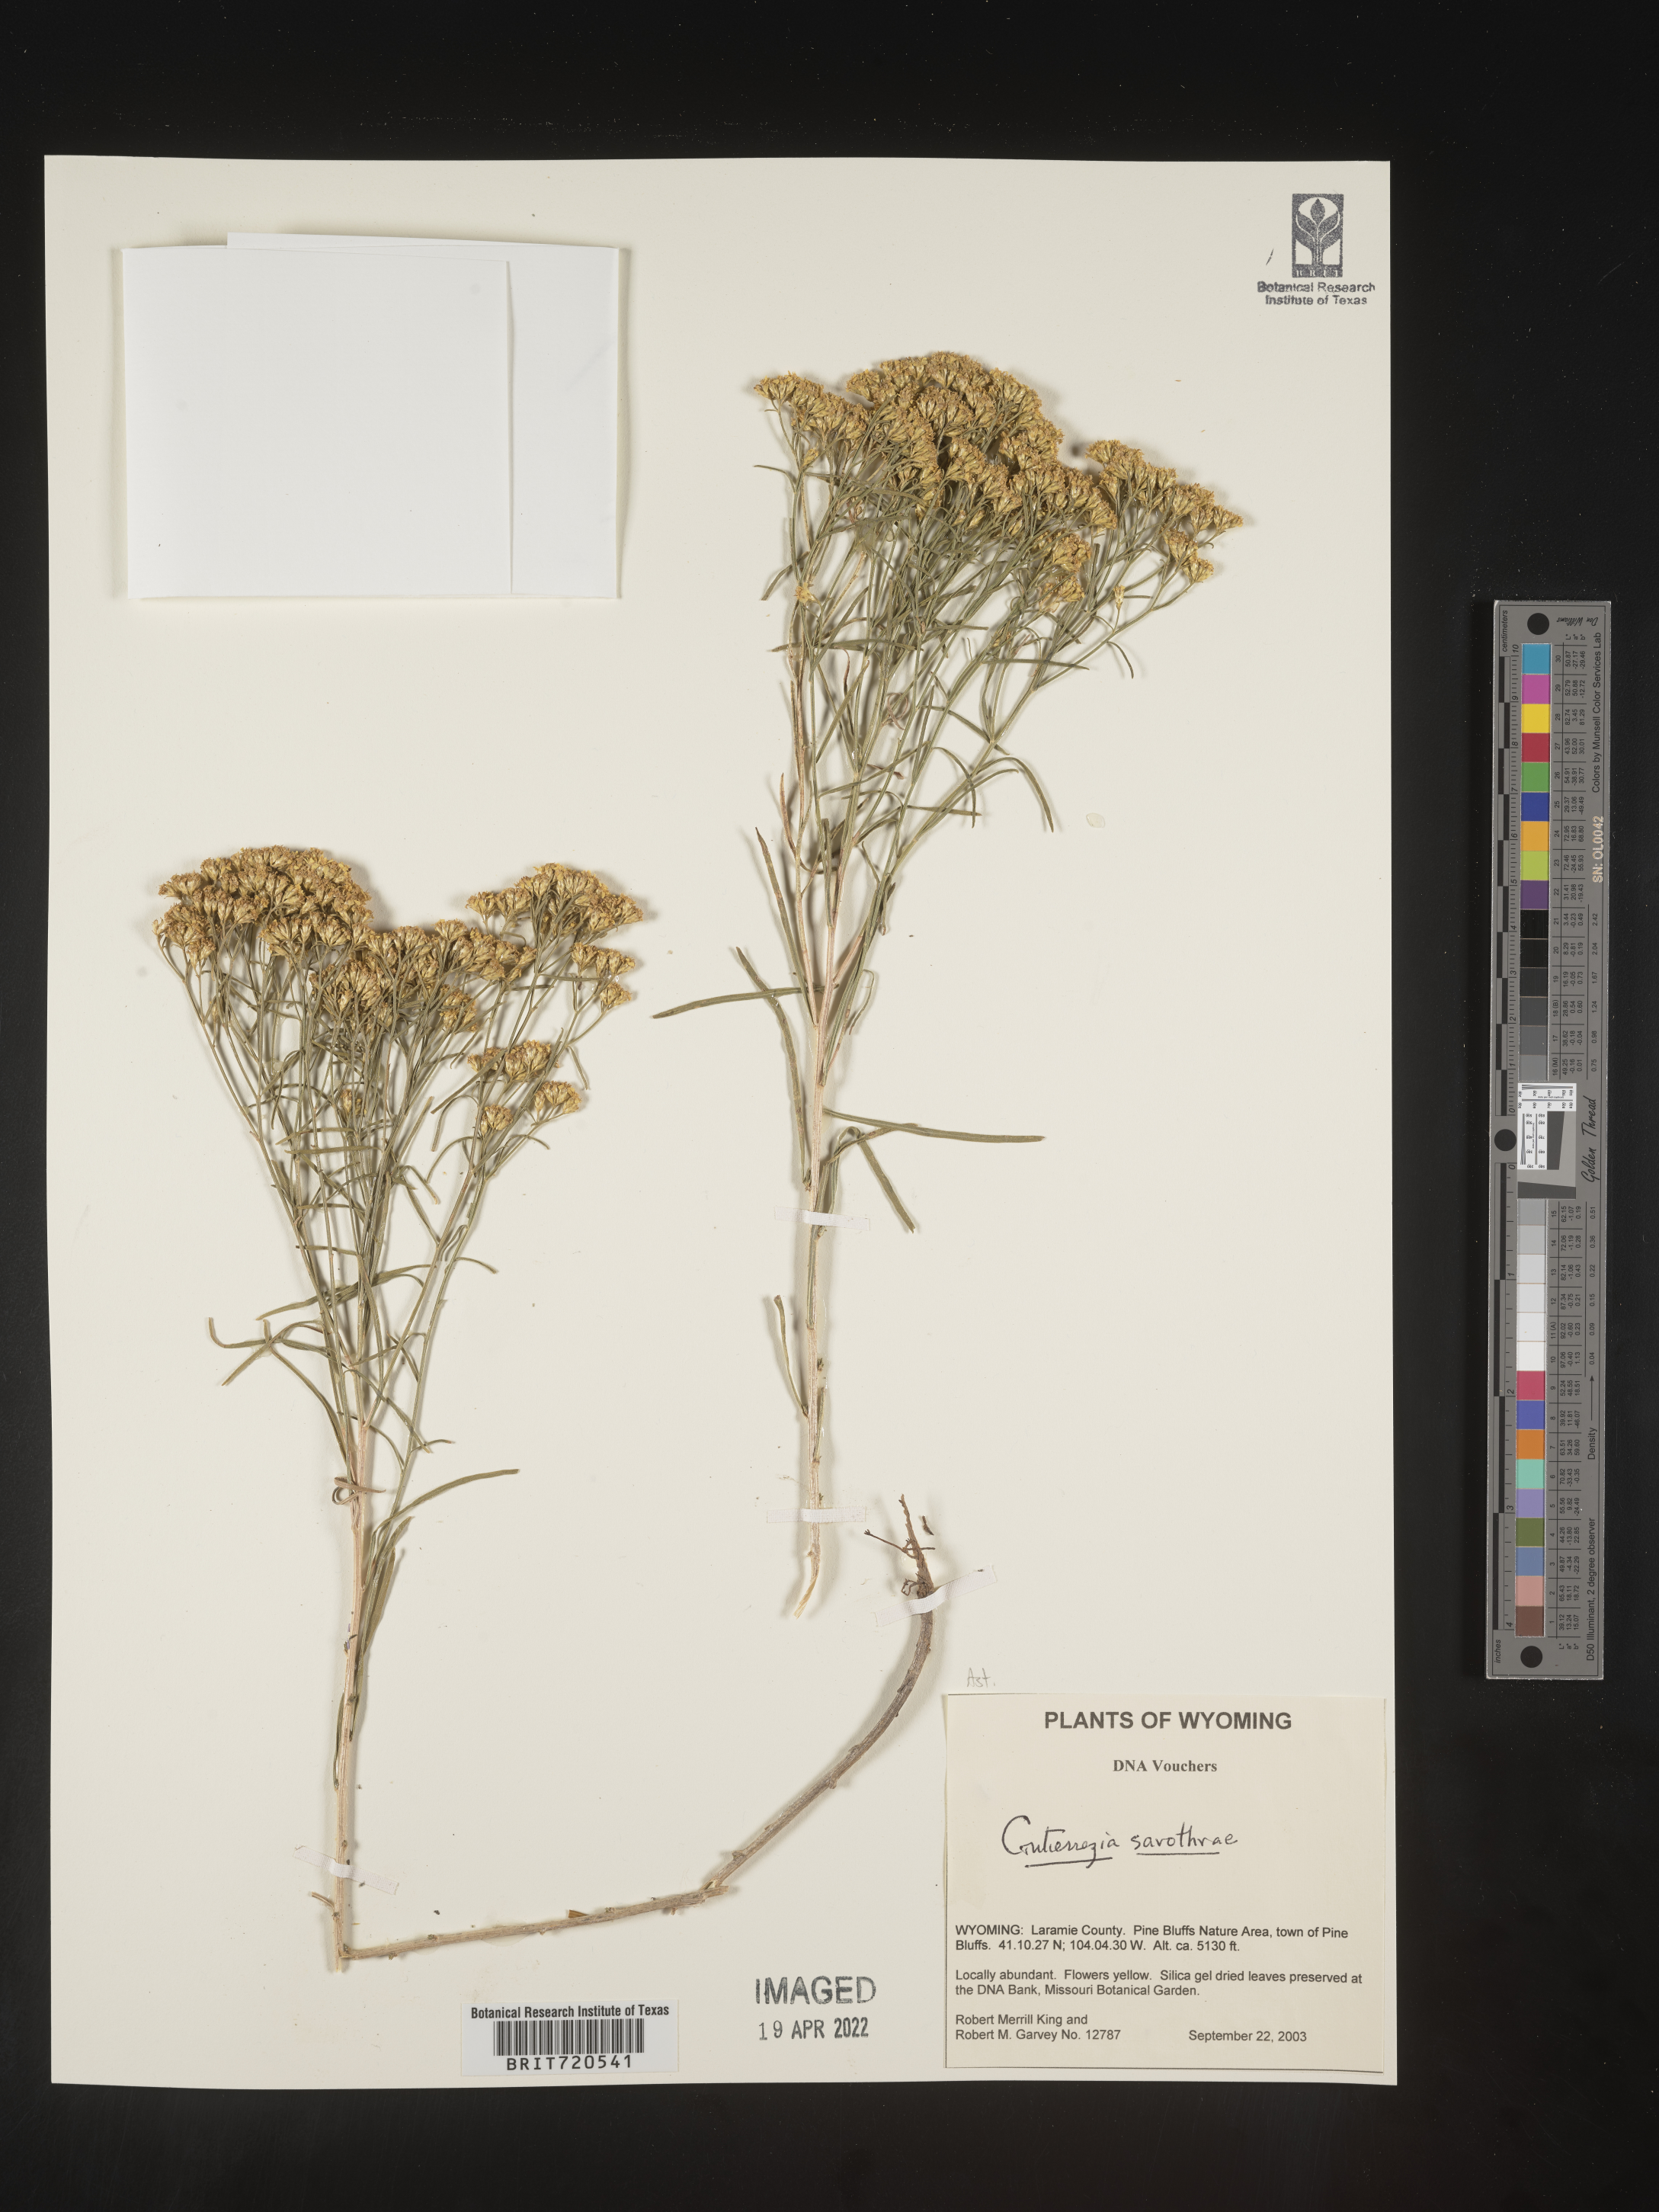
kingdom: Plantae
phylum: Tracheophyta
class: Magnoliopsida
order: Asterales
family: Asteraceae
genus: Gutierrezia
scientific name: Gutierrezia sarothrae
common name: Broom snakeweed
